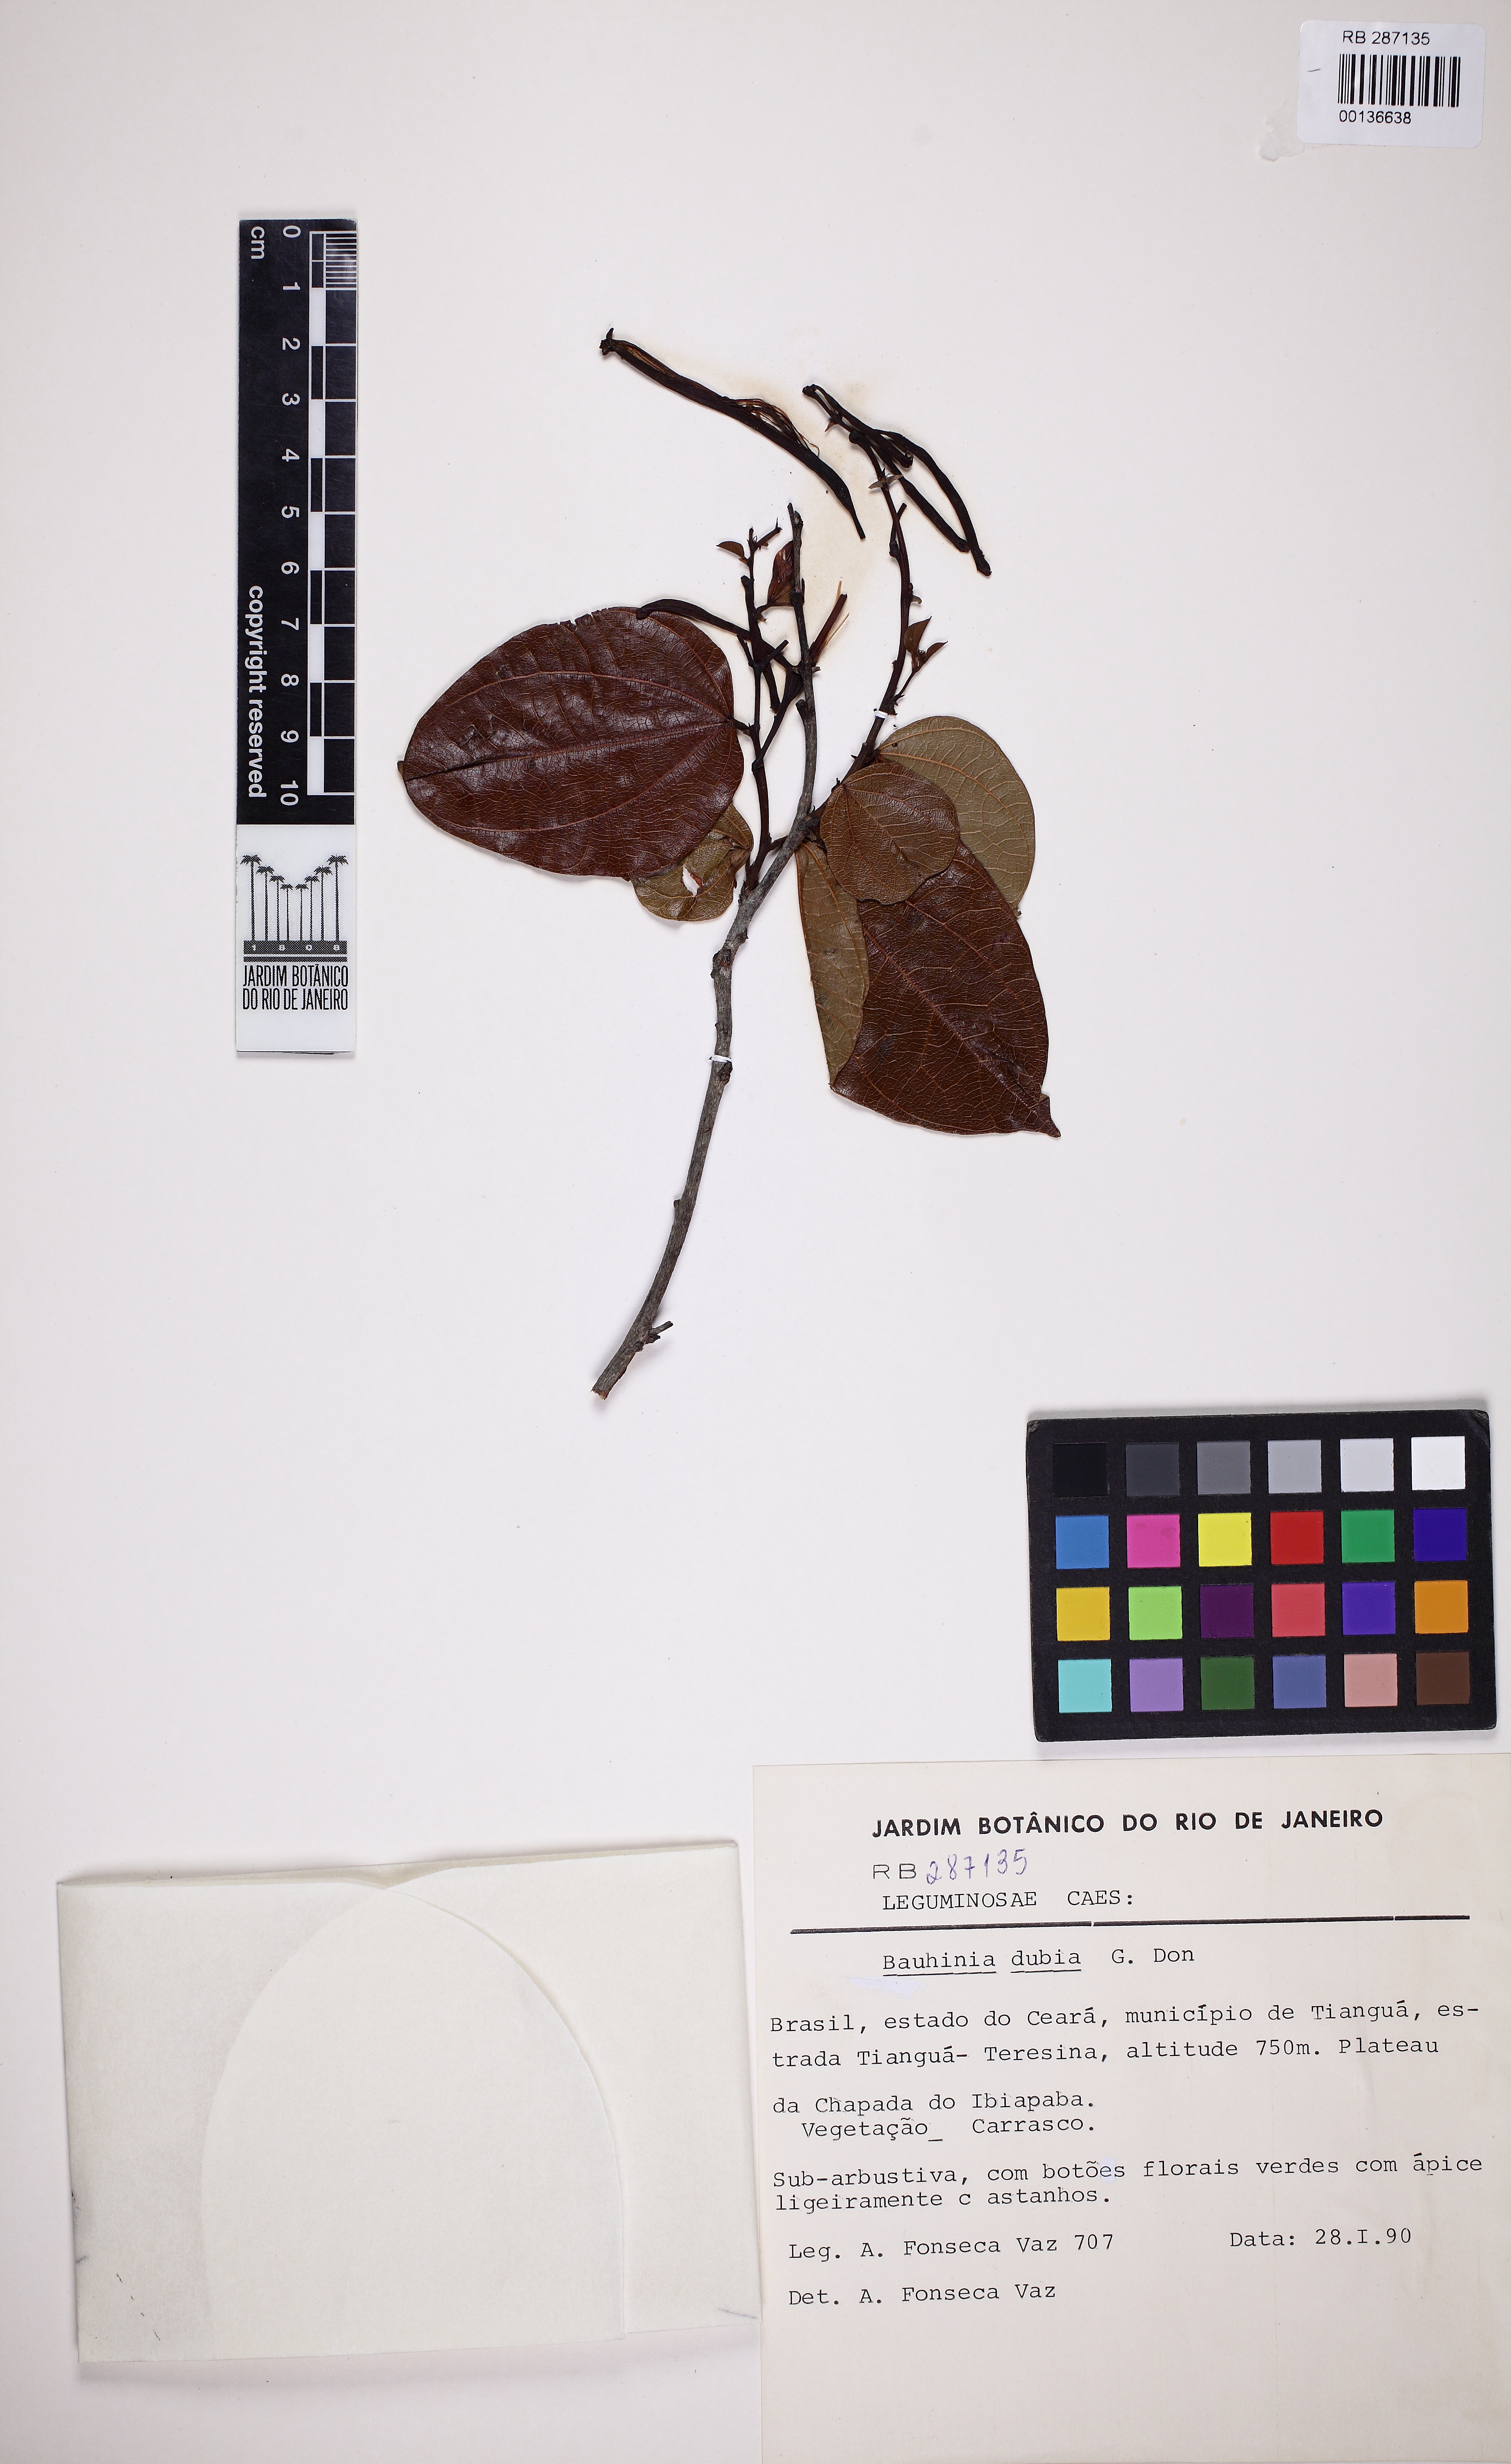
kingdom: Plantae
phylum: Tracheophyta
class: Magnoliopsida
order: Fabales
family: Fabaceae
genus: Bauhinia
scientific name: Bauhinia dubia
